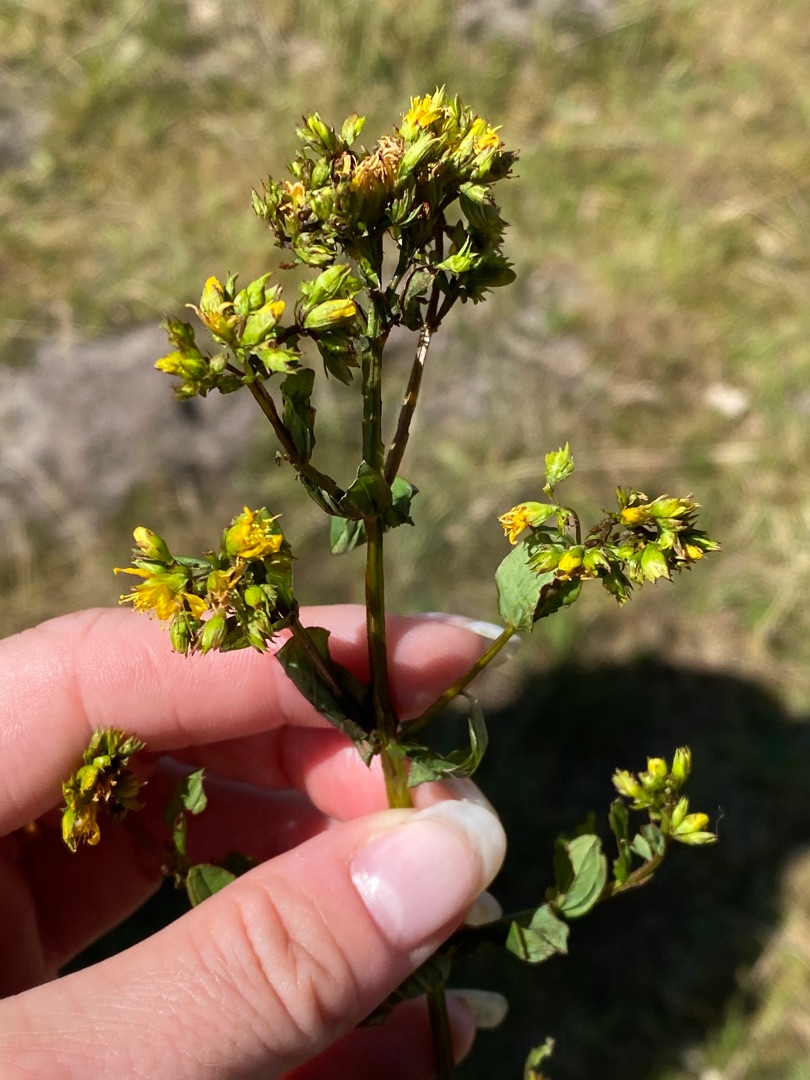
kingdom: Plantae
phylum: Tracheophyta
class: Magnoliopsida
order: Malpighiales
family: Hypericaceae
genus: Hypericum
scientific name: Hypericum tetrapterum
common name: Vinget perikon
